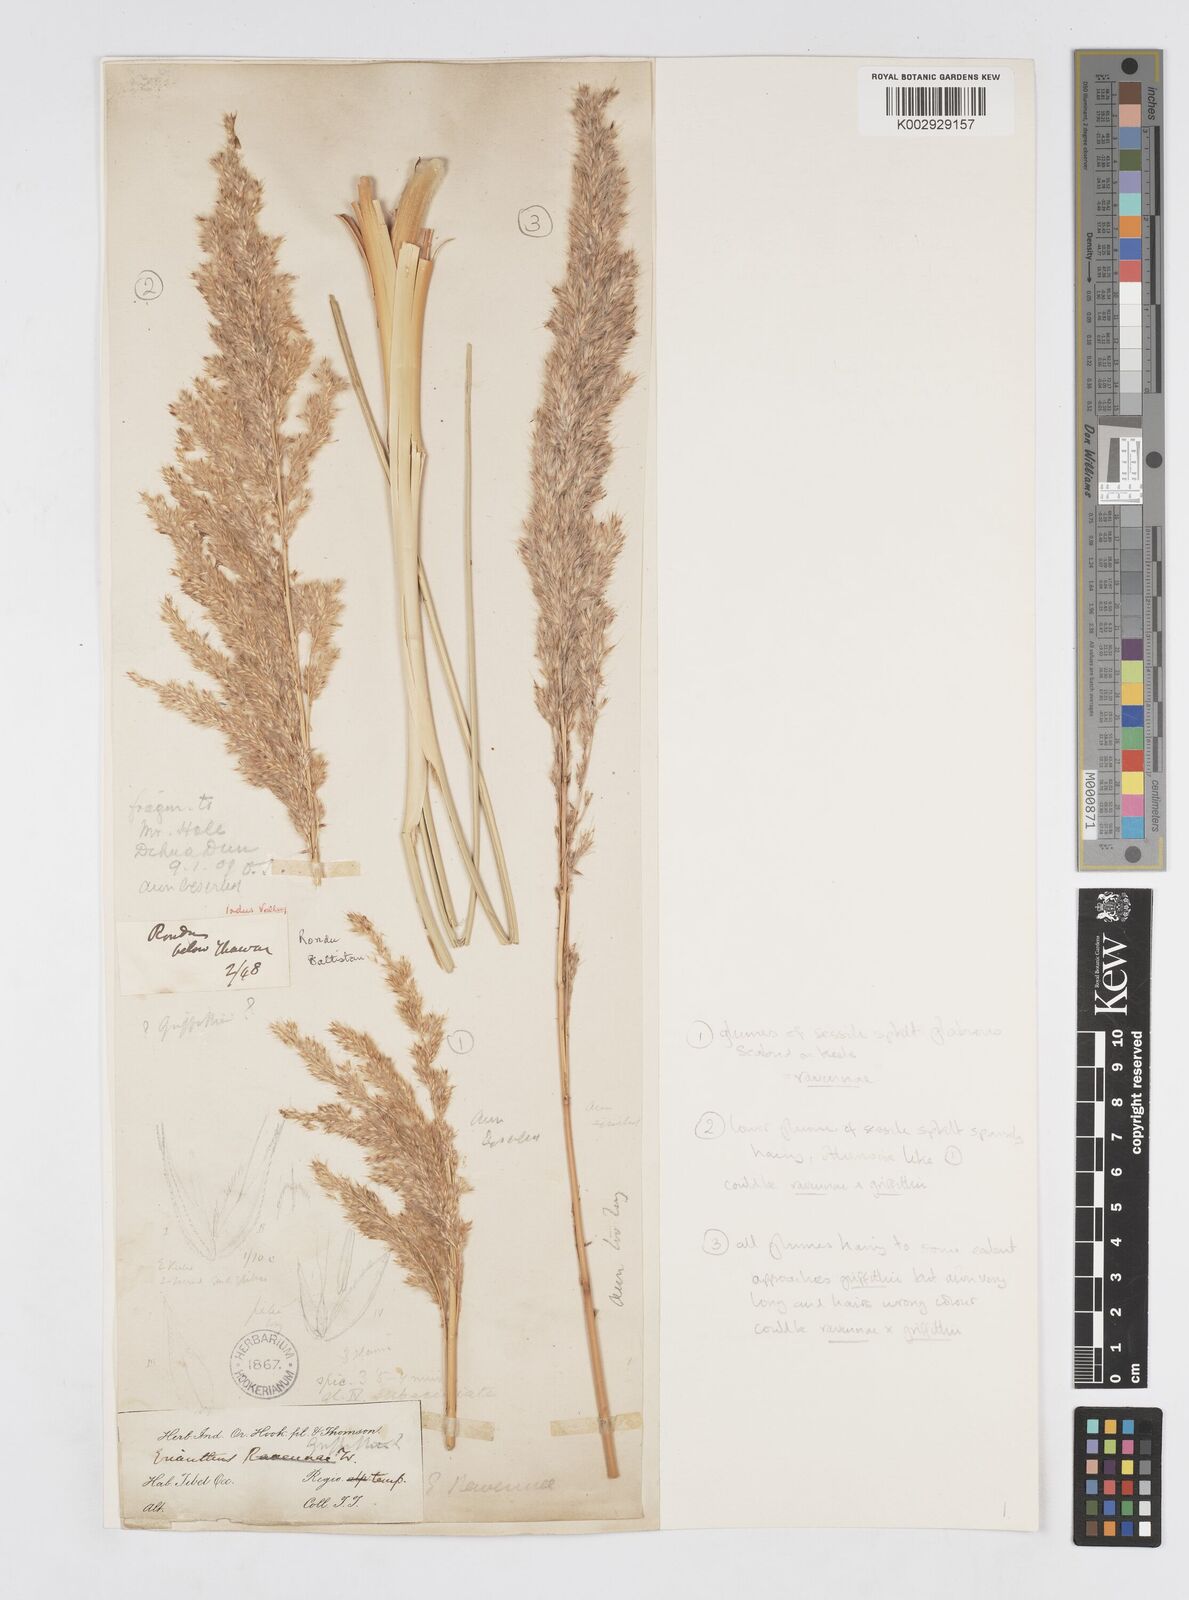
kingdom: Plantae
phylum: Tracheophyta
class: Liliopsida
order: Poales
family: Poaceae
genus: Saccharum
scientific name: Saccharum griffithii
